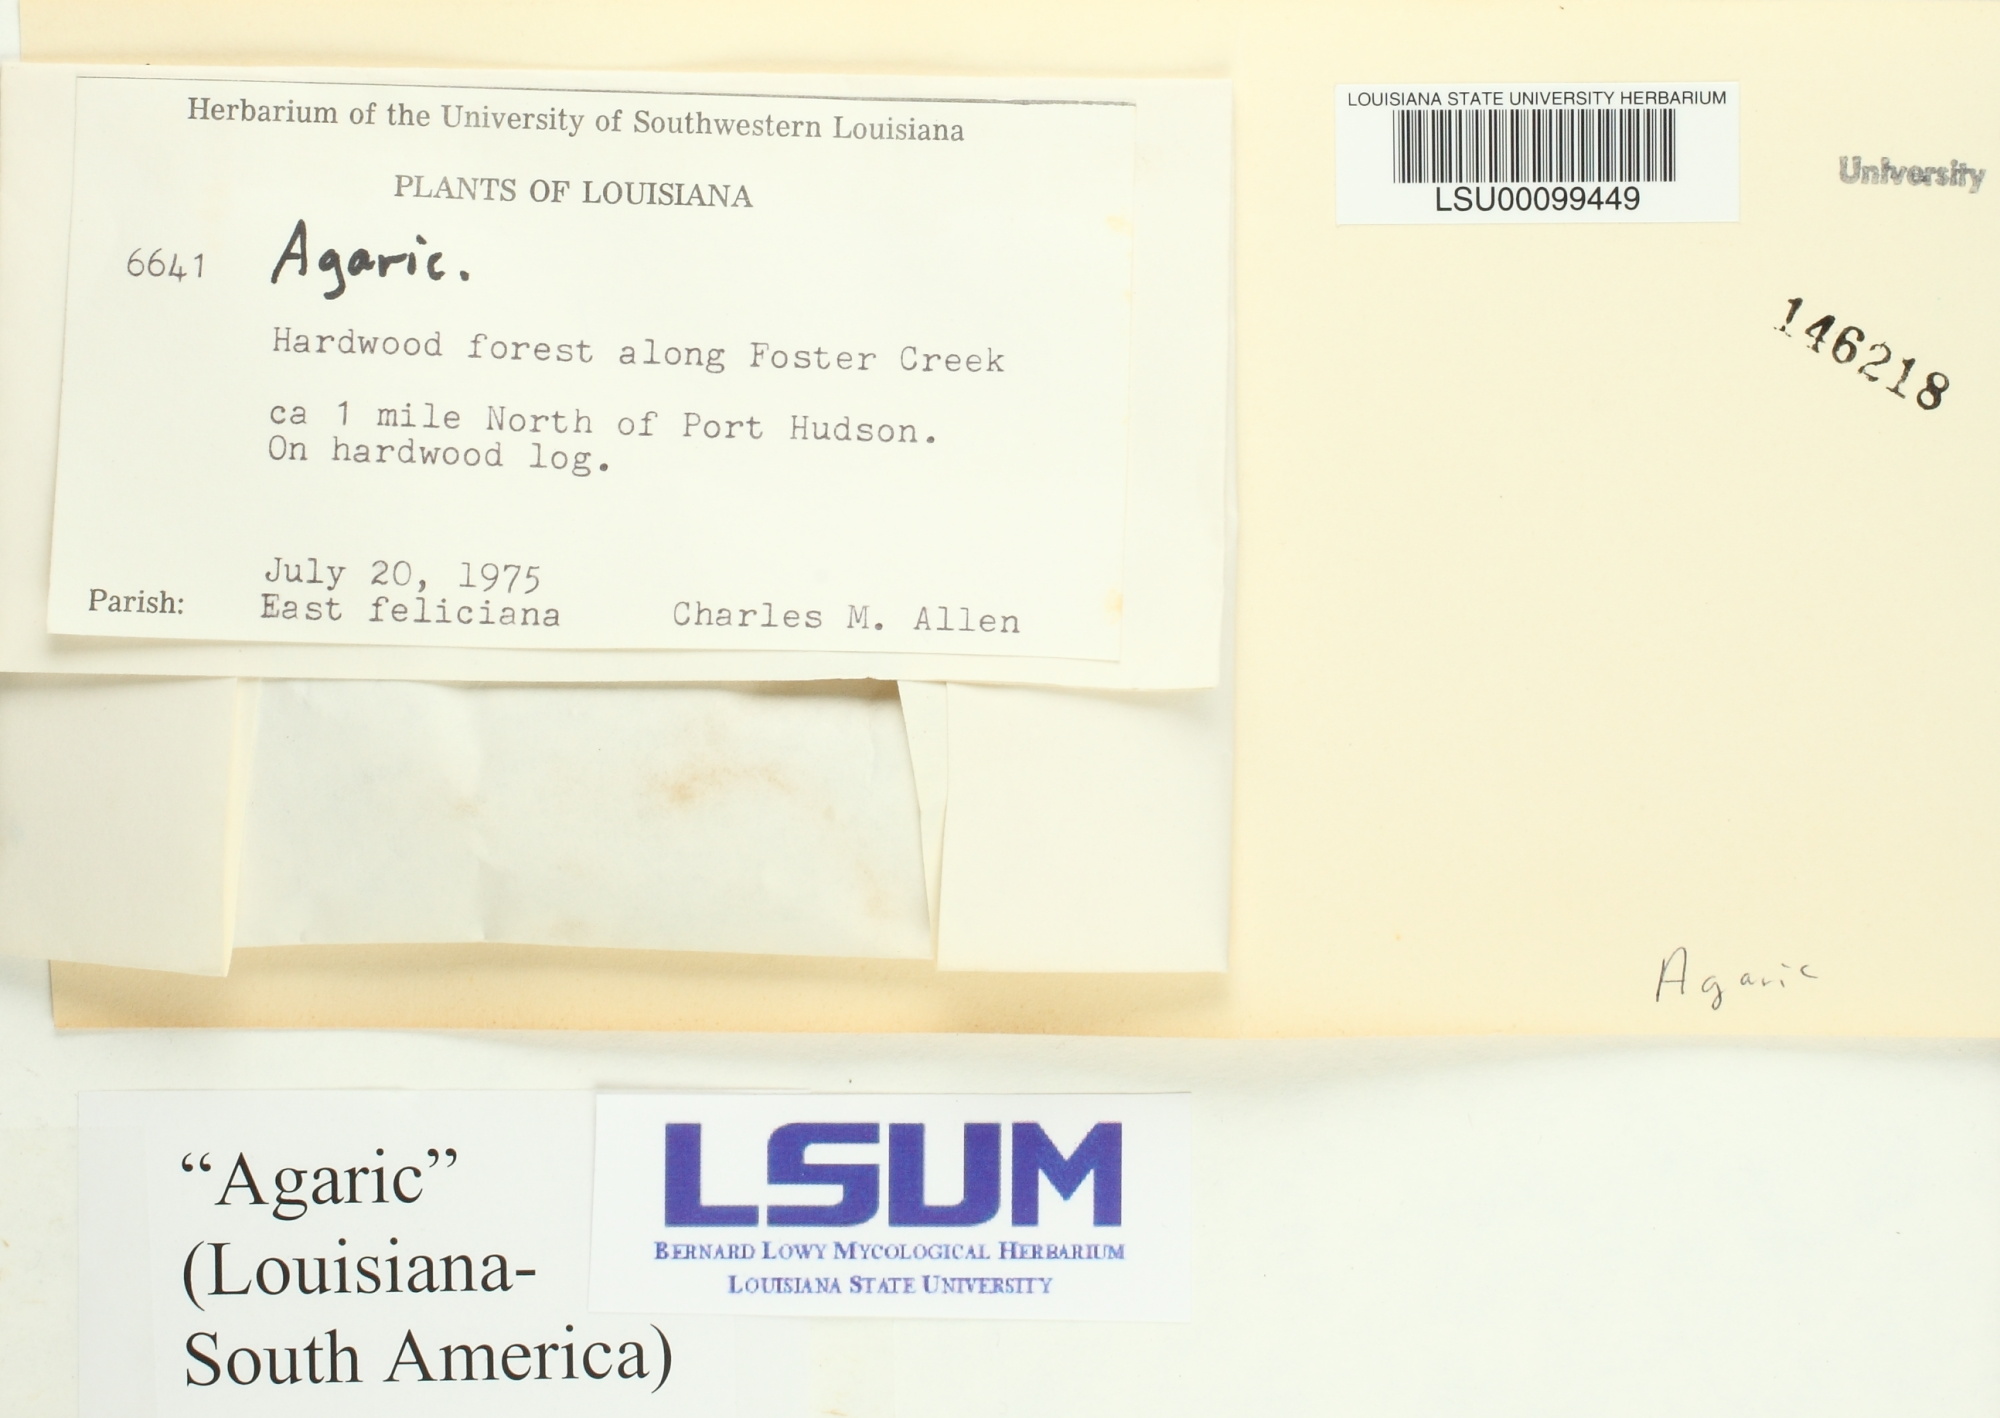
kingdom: Fungi
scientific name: Fungi
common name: Fungi
